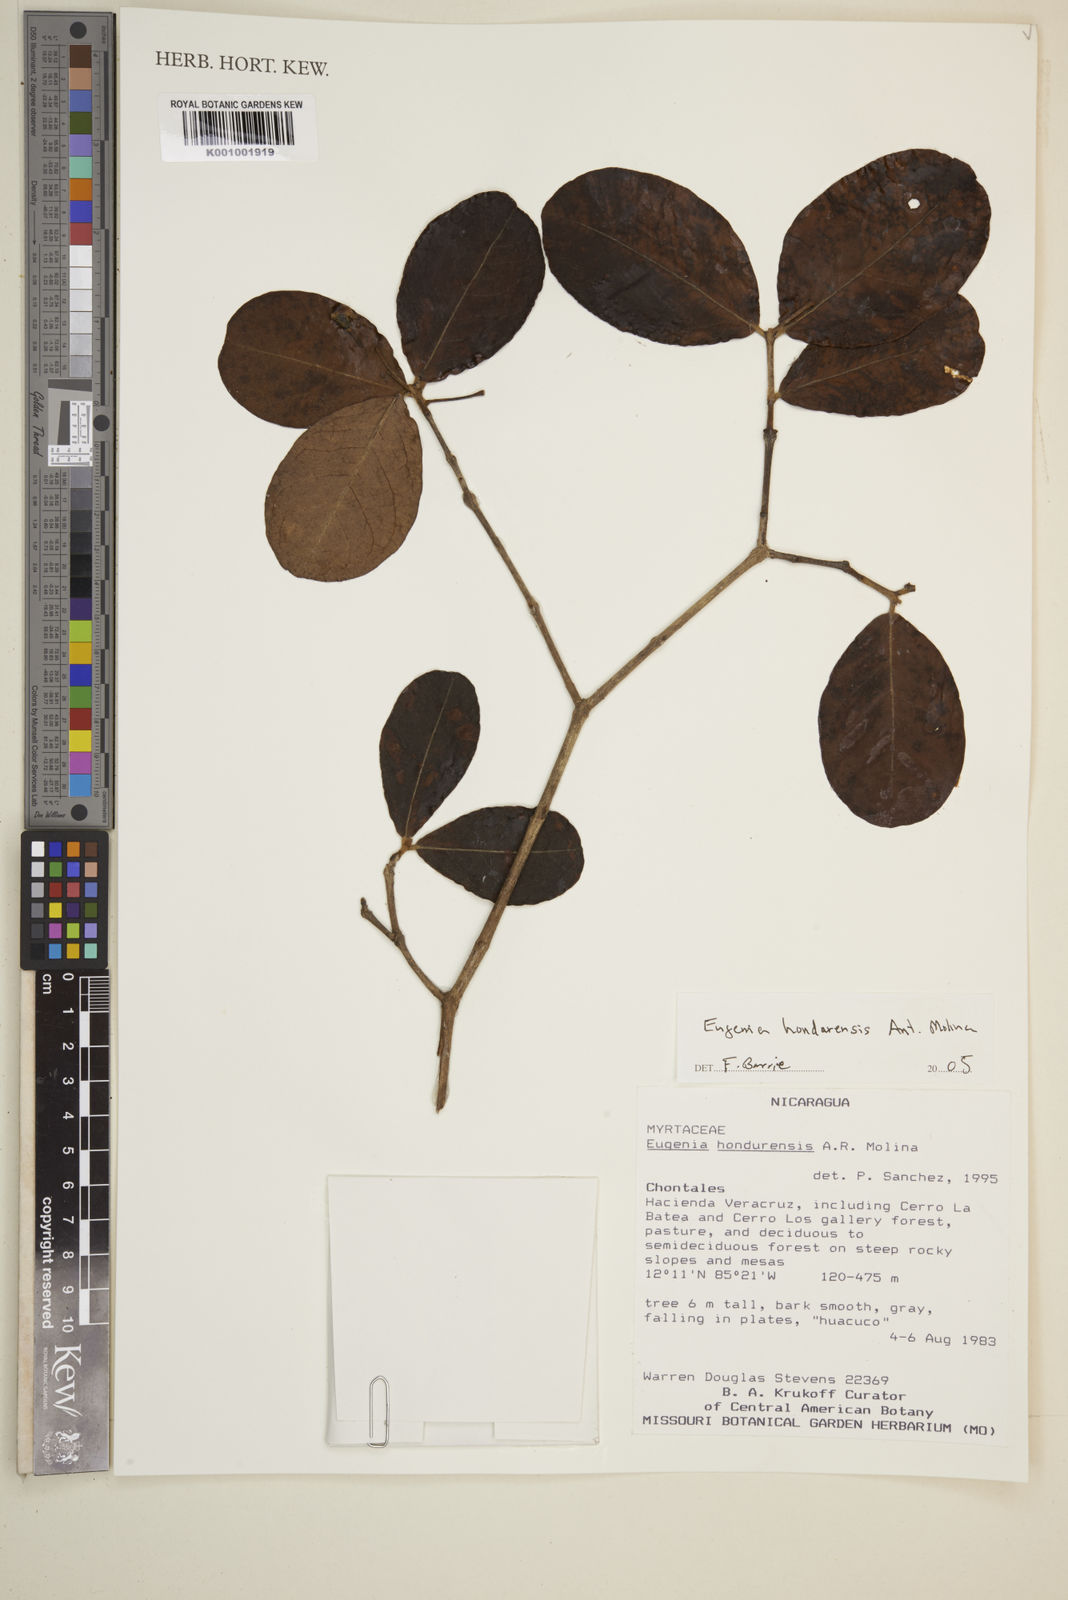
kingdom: Plantae
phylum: Tracheophyta
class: Magnoliopsida
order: Myrtales
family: Myrtaceae
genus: Eugenia
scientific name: Eugenia hondurensis
